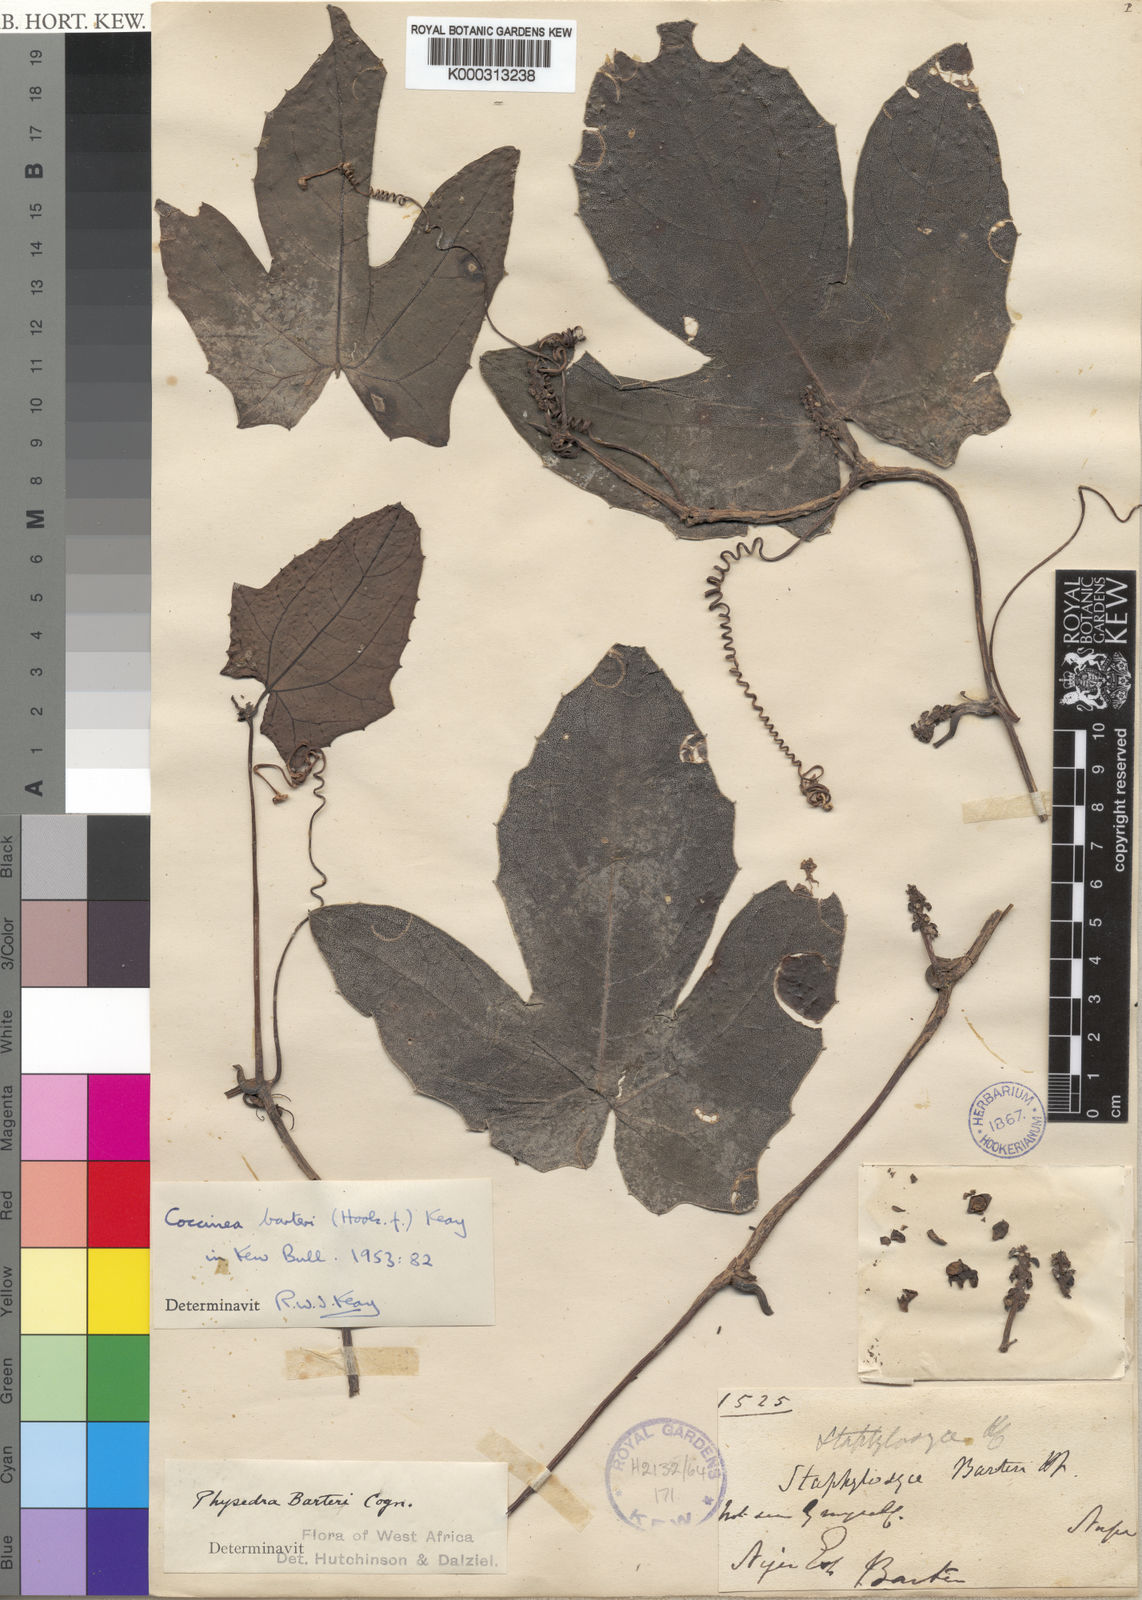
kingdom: Plantae
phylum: Tracheophyta
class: Magnoliopsida
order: Cucurbitales
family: Cucurbitaceae
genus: Coccinia
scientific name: Coccinia barteri
